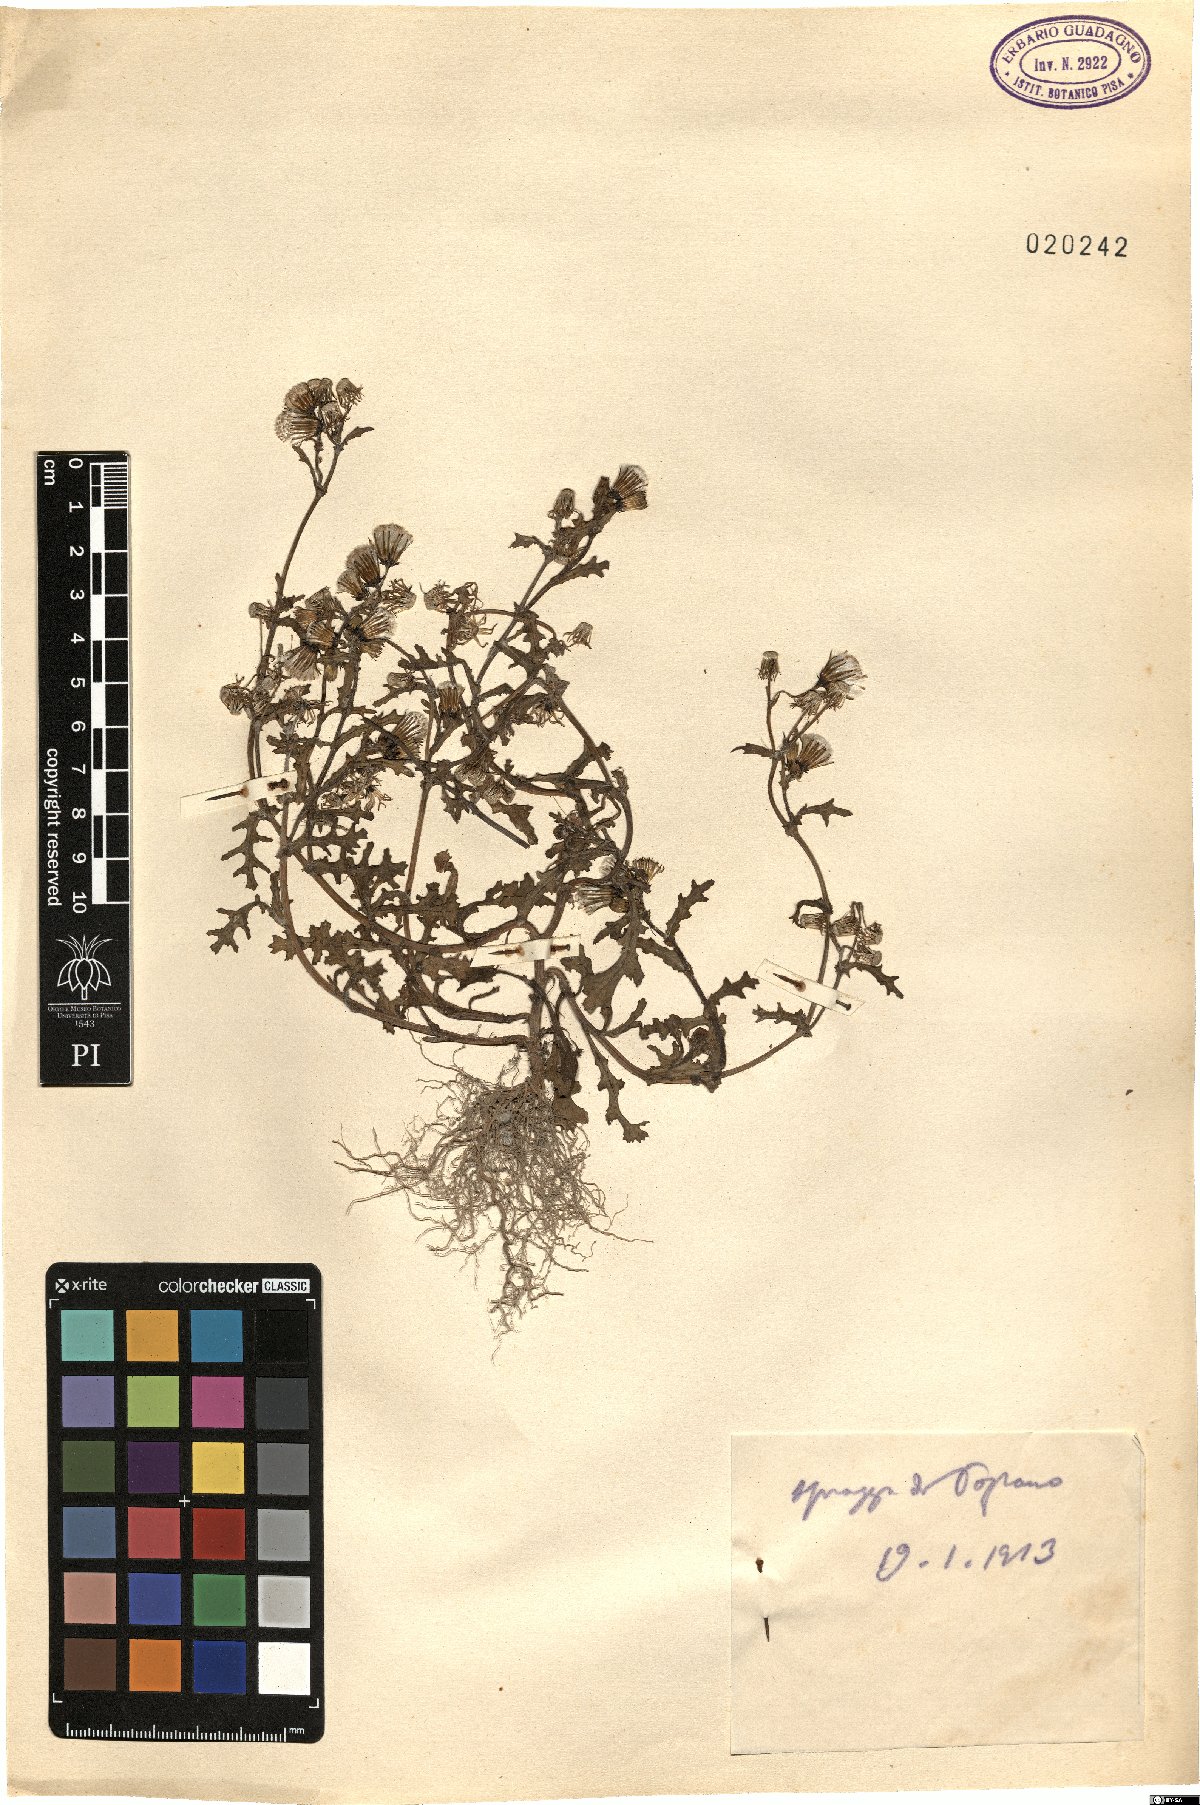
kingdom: Plantae
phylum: Tracheophyta
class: Magnoliopsida
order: Asterales
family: Asteraceae
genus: Senecio
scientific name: Senecio
